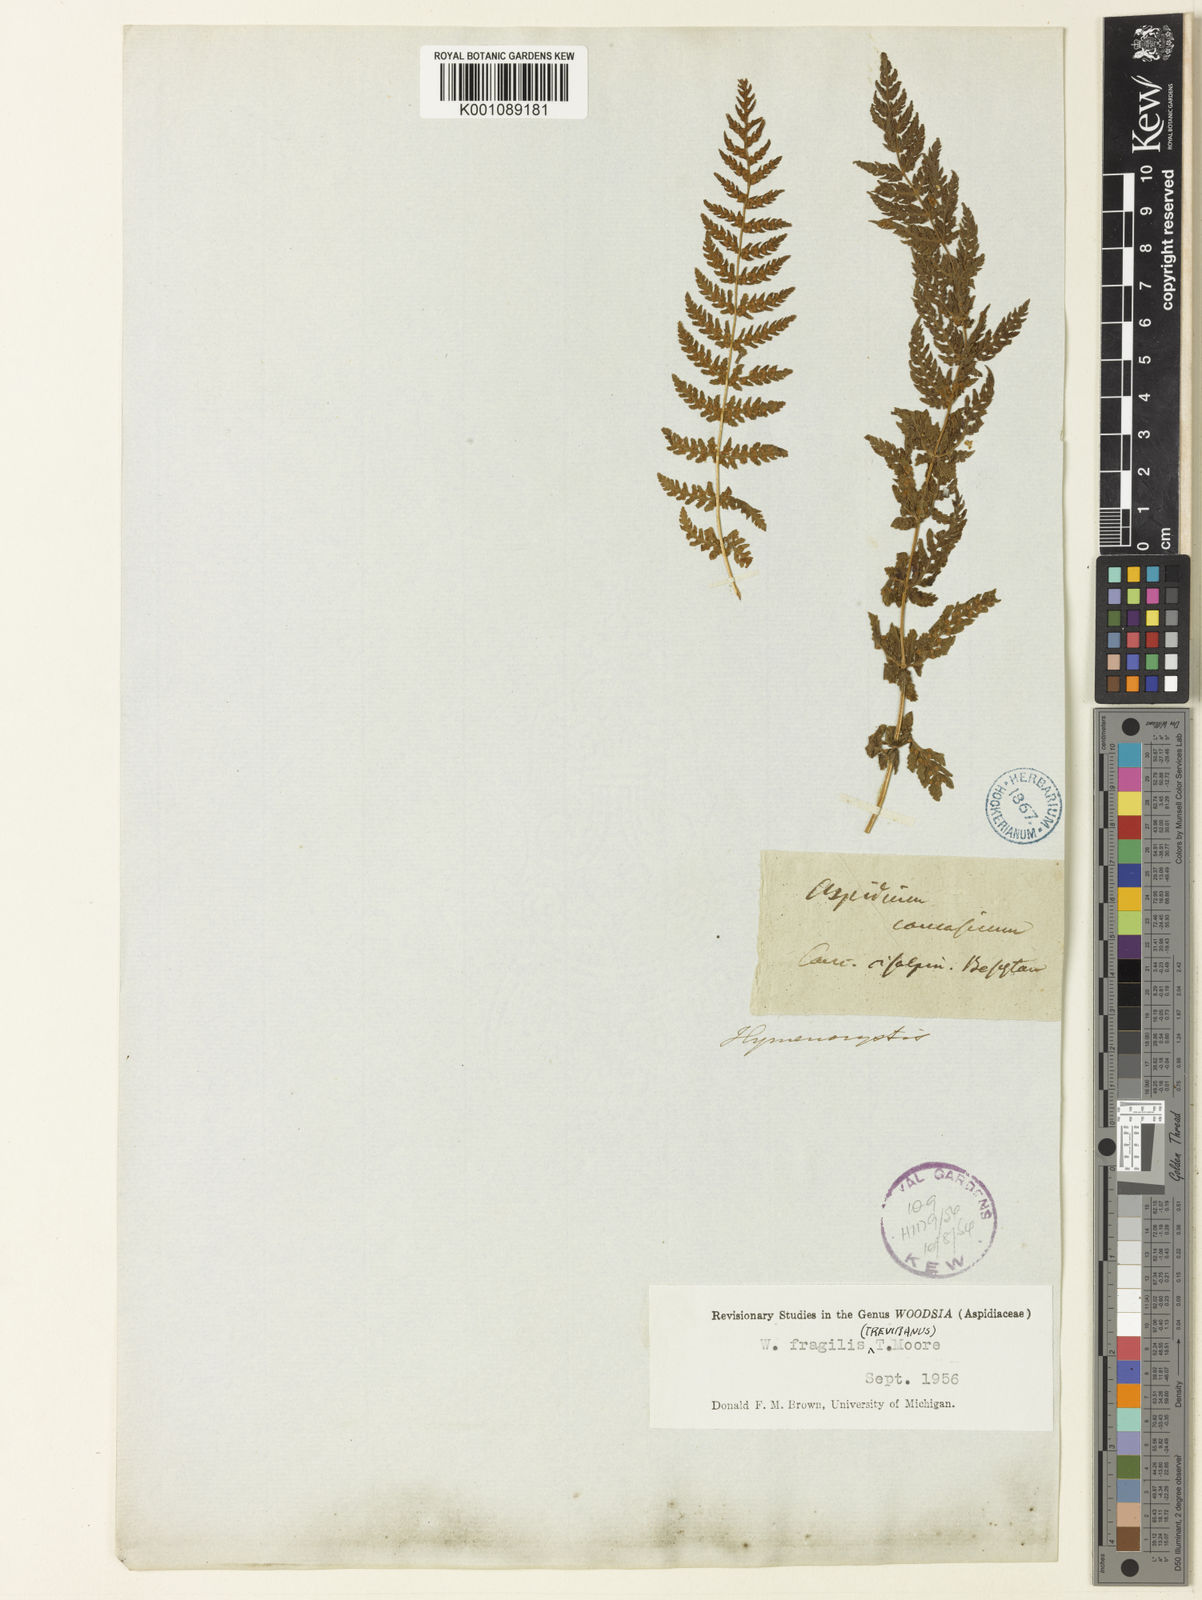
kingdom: Plantae
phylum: Tracheophyta
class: Polypodiopsida
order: Polypodiales
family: Woodsiaceae
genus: Physematium
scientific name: Physematium fragile
